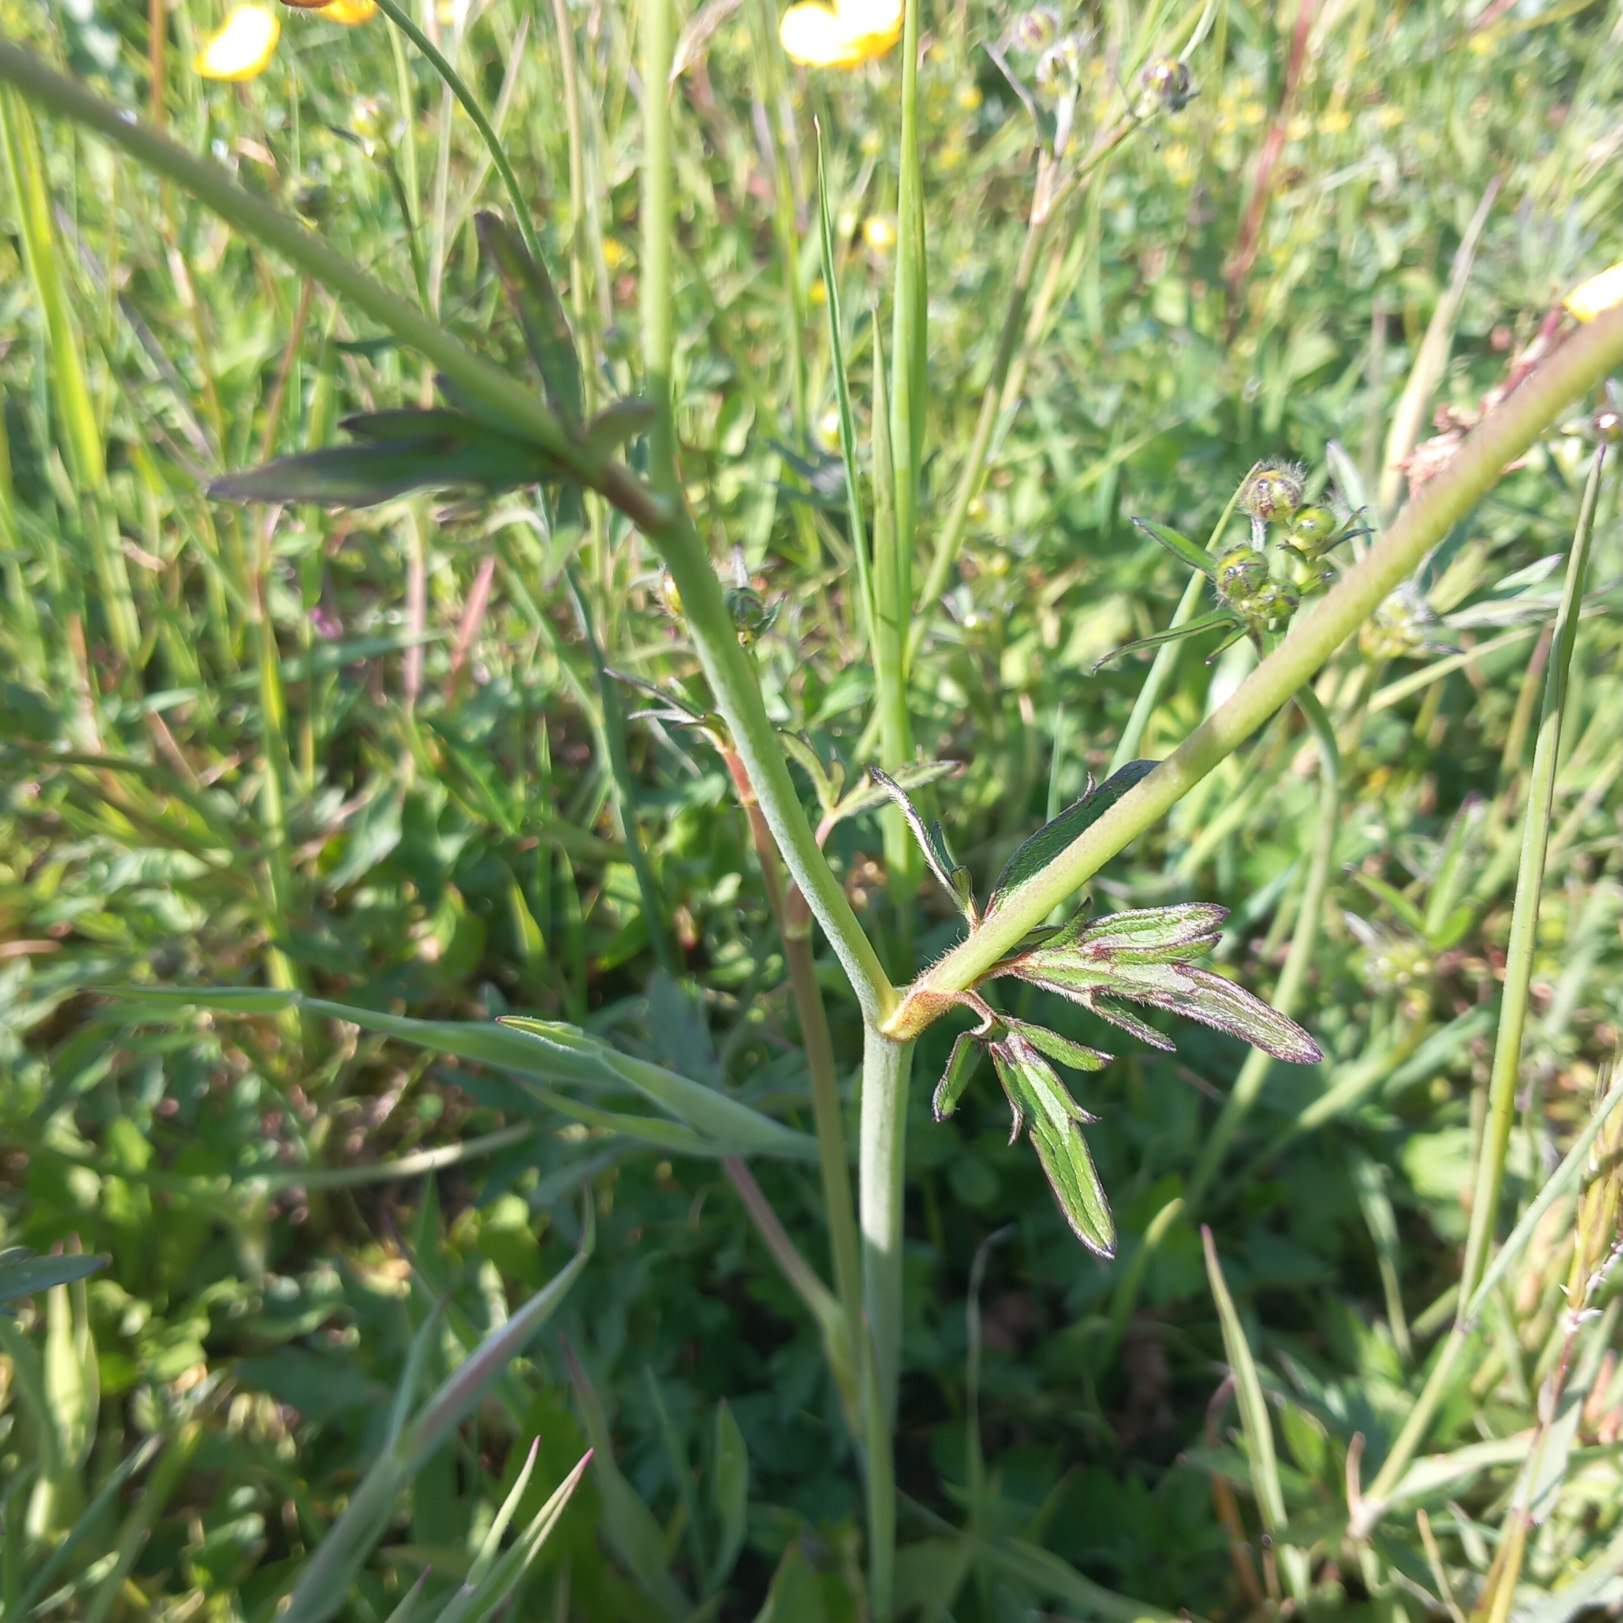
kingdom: Plantae
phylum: Tracheophyta
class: Magnoliopsida
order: Ranunculales
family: Ranunculaceae
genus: Ranunculus
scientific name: Ranunculus acris
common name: Bidende ranunkel
